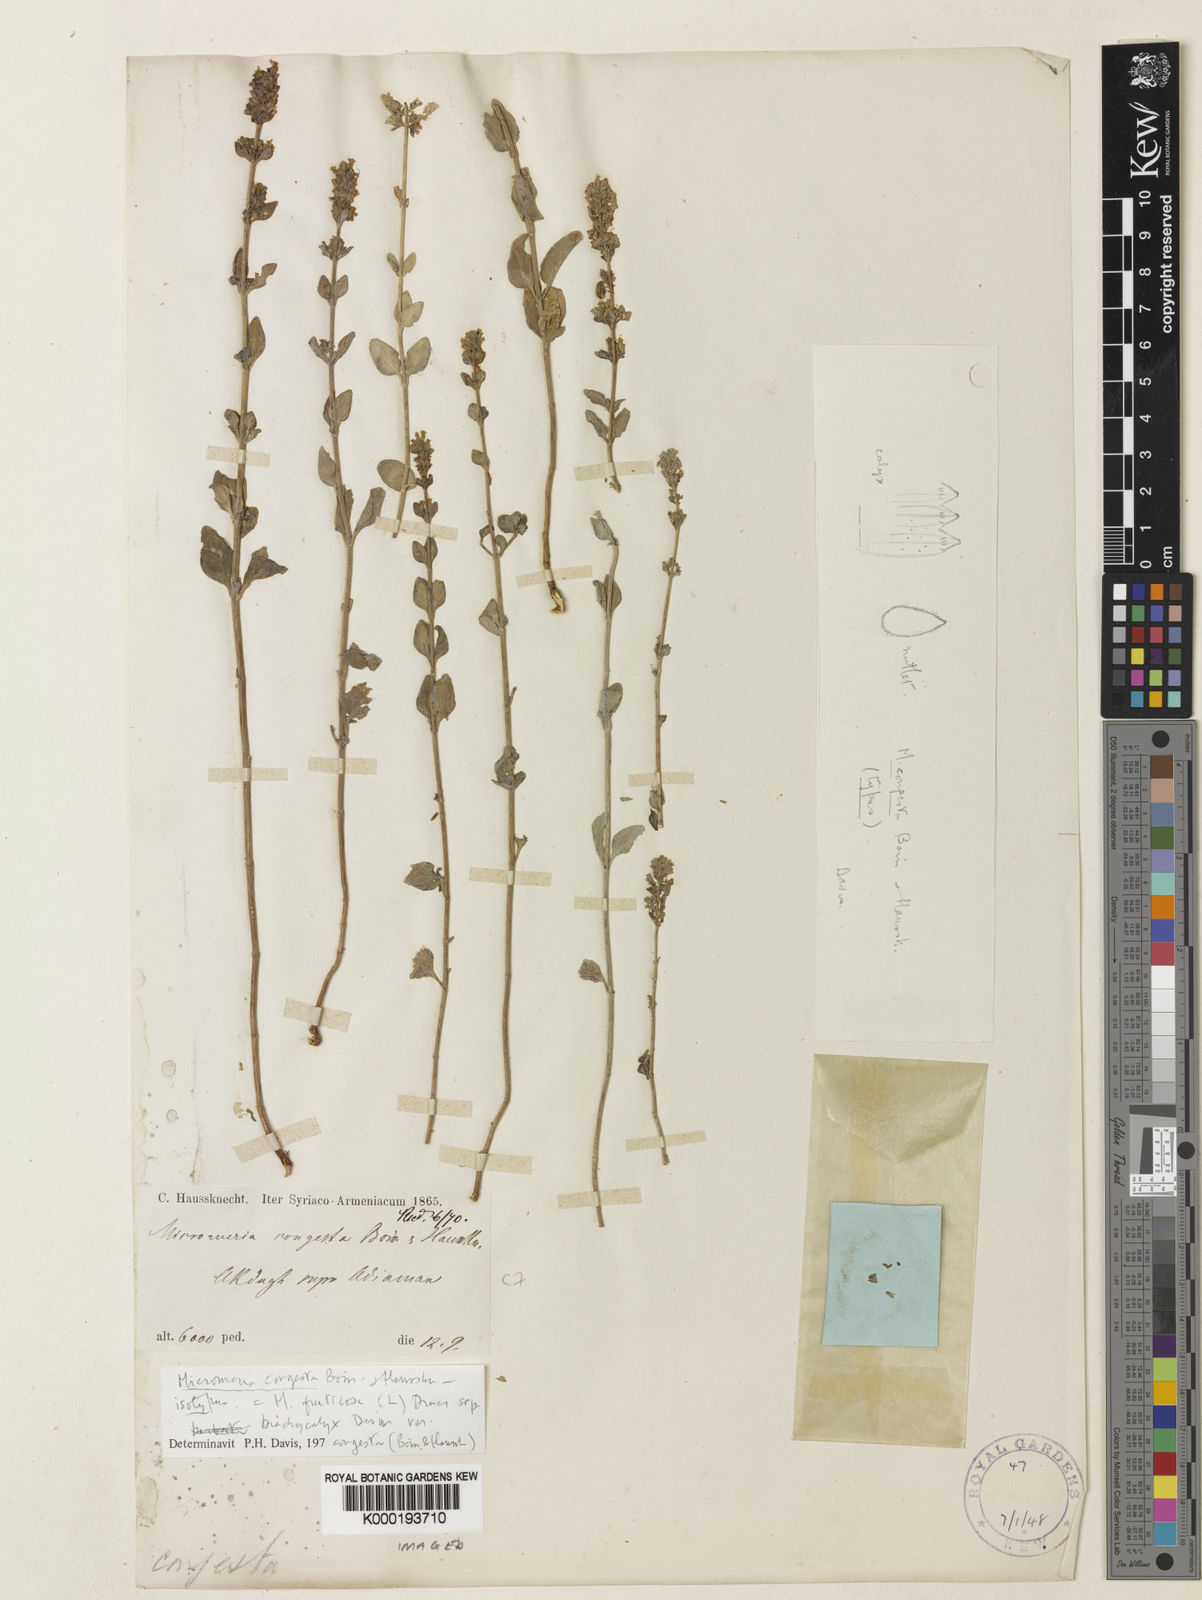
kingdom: Plantae
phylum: Tracheophyta
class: Magnoliopsida
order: Lamiales
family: Lamiaceae
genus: Clinopodium
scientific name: Clinopodium serpyllifolium
